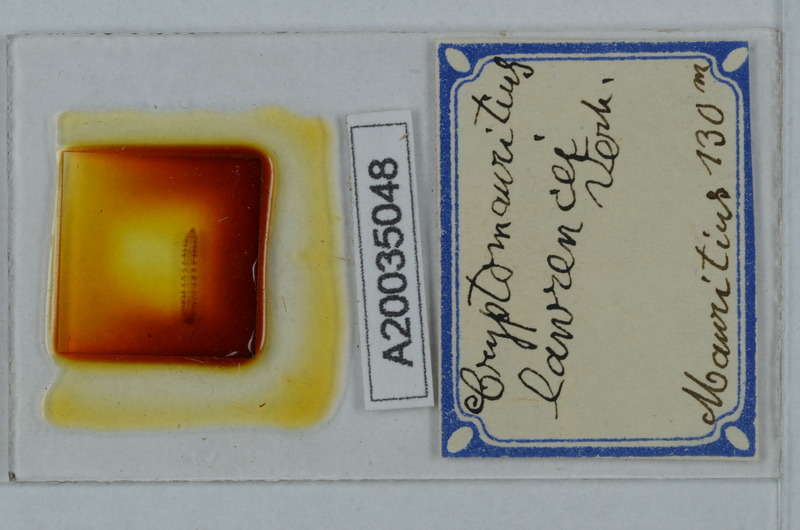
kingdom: Animalia
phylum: Arthropoda
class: Diplopoda
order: Polydesmida
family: Cryptodesmidae
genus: Cryptodesmus
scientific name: Cryptodesmus
